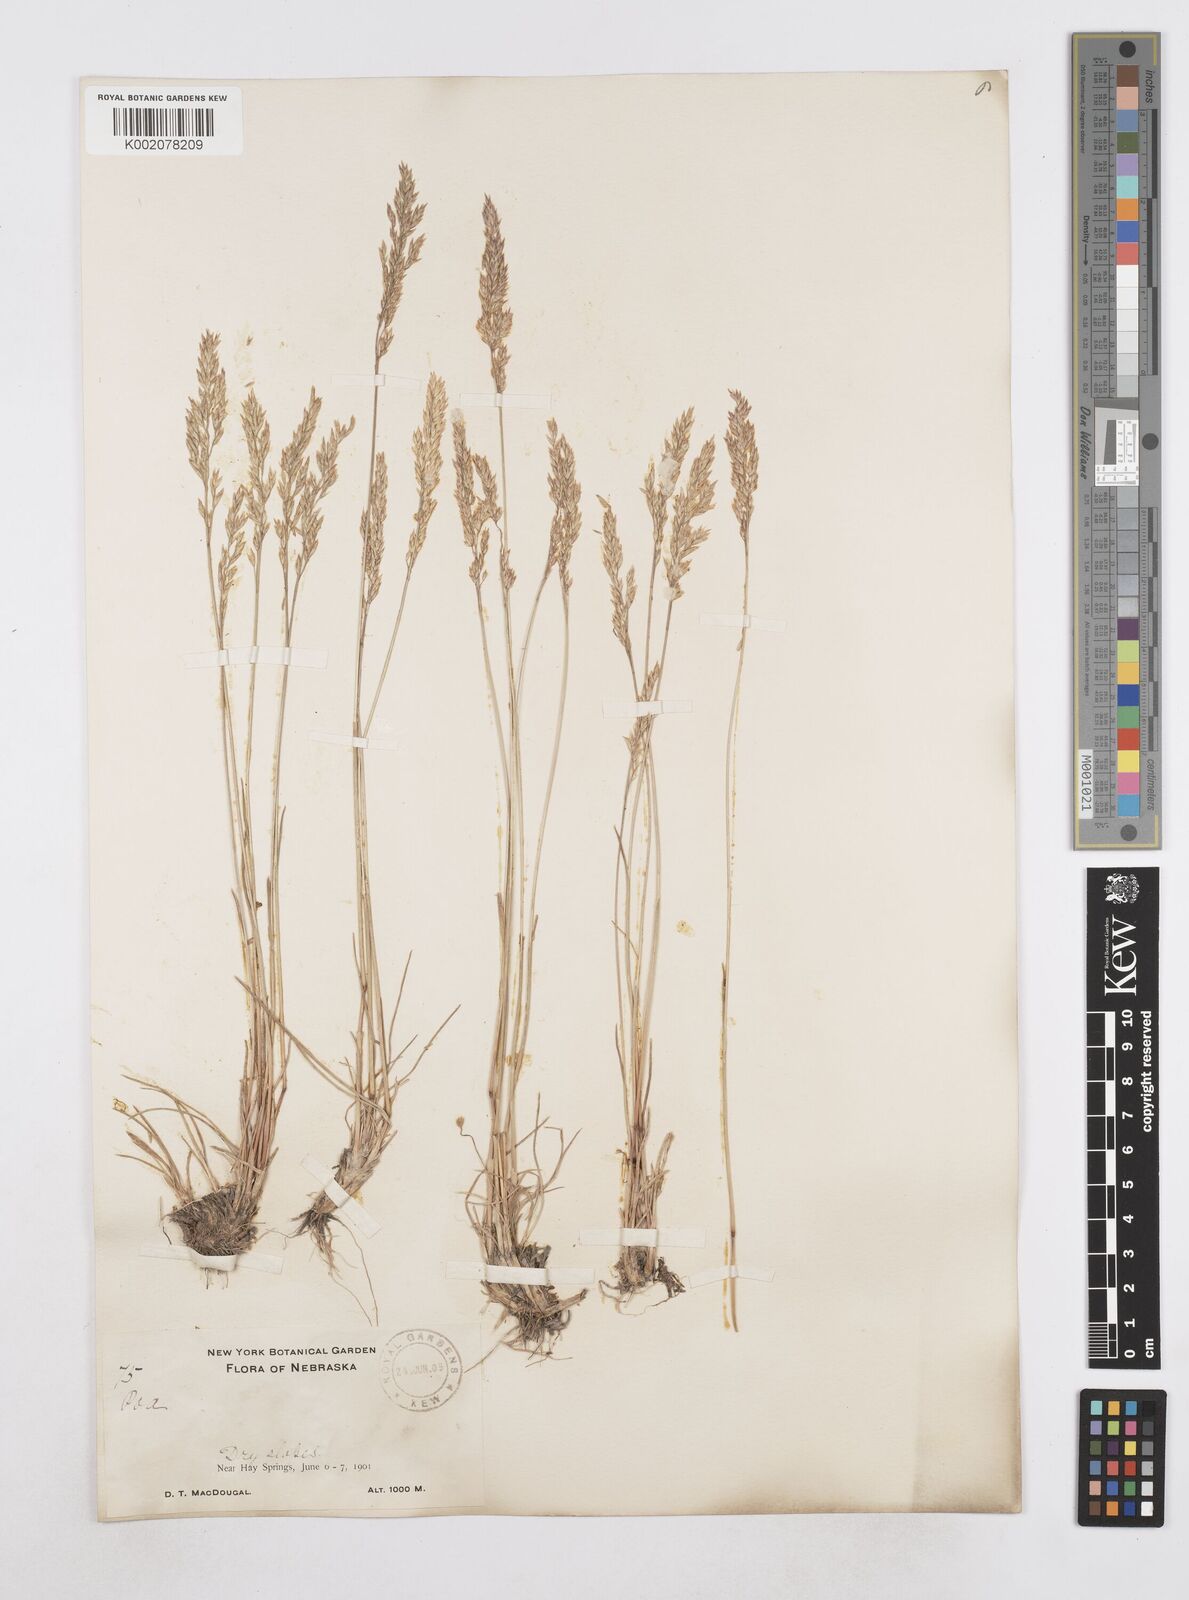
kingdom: Plantae
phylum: Tracheophyta
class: Liliopsida
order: Poales
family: Poaceae
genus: Poa
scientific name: Poa
